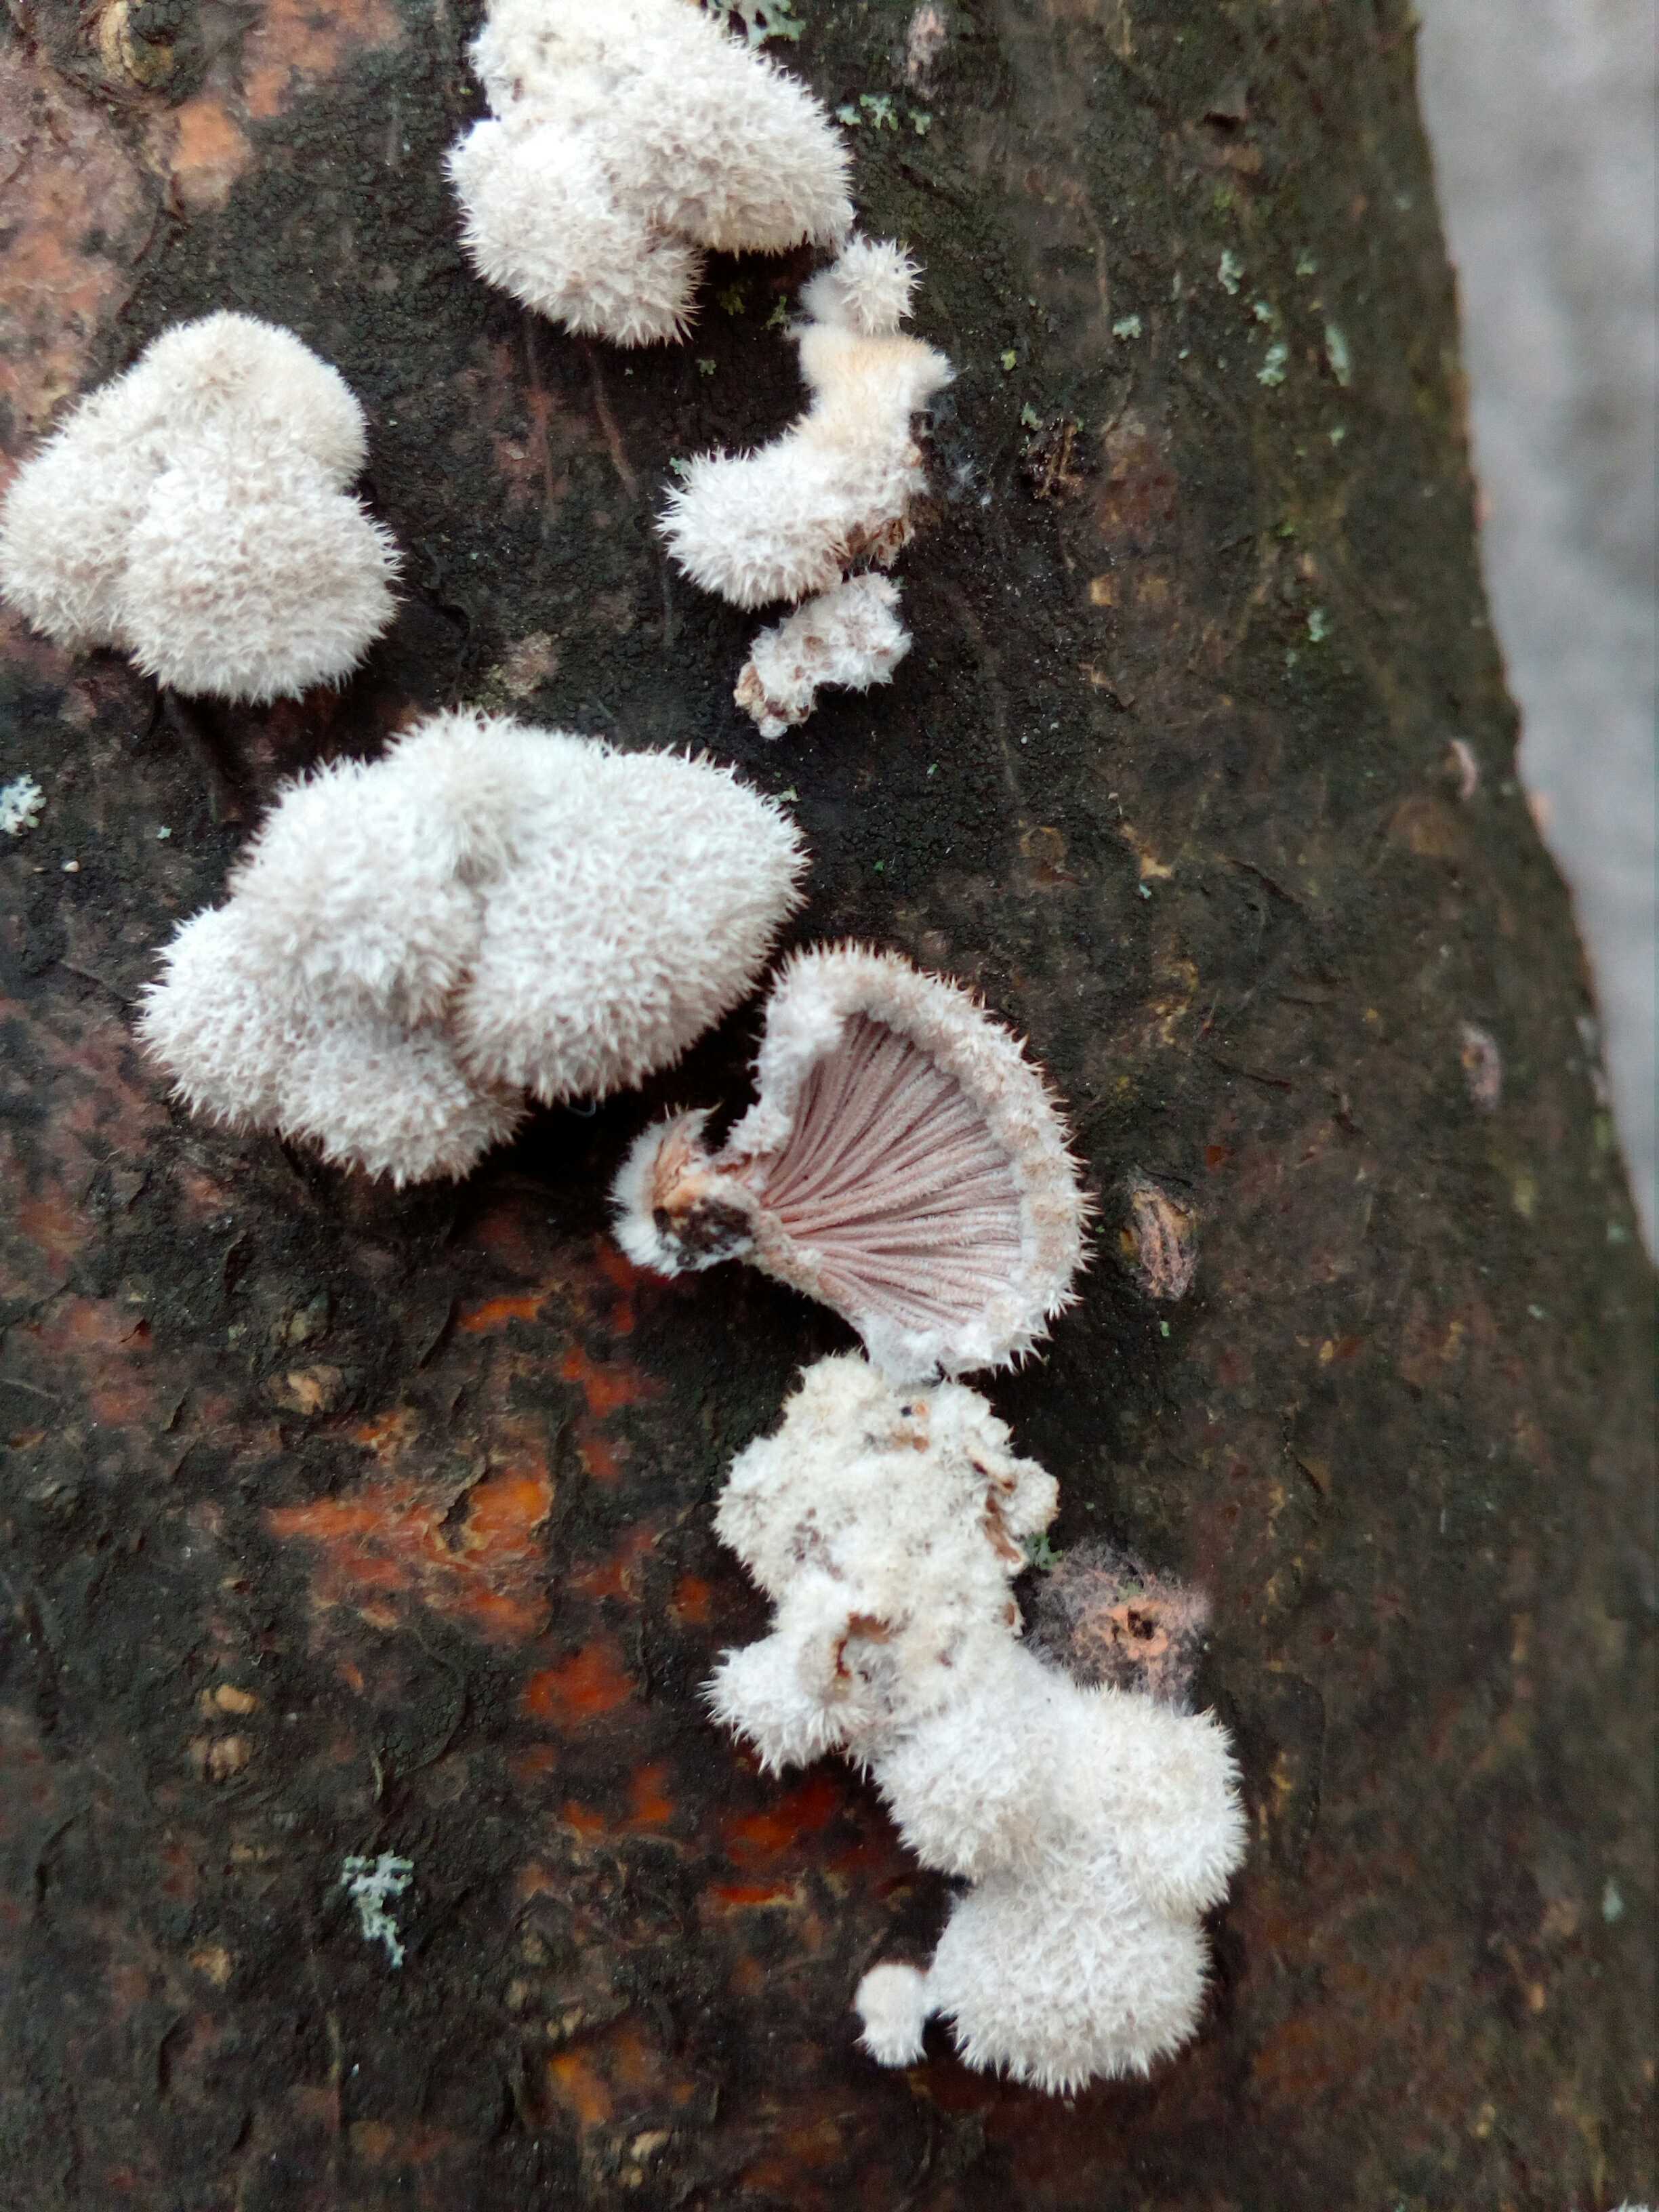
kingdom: Fungi
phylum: Basidiomycota
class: Agaricomycetes
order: Agaricales
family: Schizophyllaceae
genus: Schizophyllum
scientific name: Schizophyllum commune
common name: kløvblad
